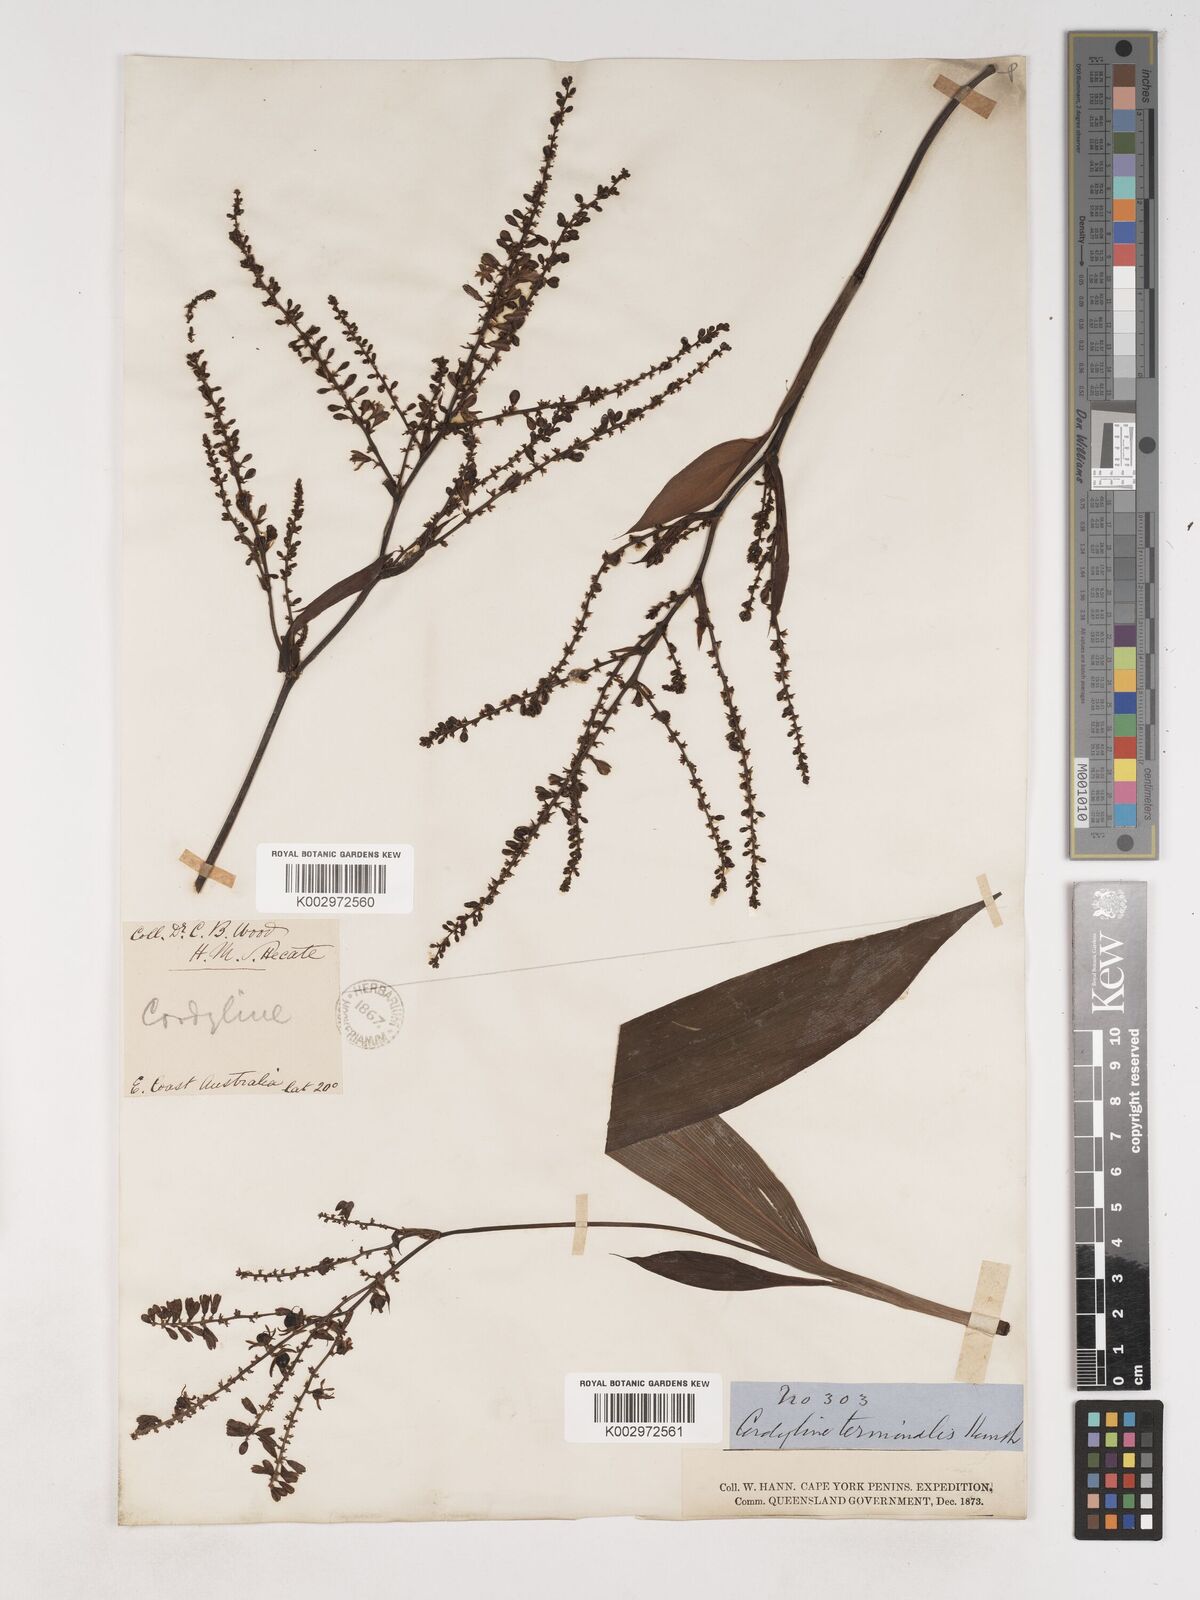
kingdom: Plantae
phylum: Tracheophyta
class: Liliopsida
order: Asparagales
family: Asparagaceae
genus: Cordyline
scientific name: Cordyline fruticosa
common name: Good-luck-plant
